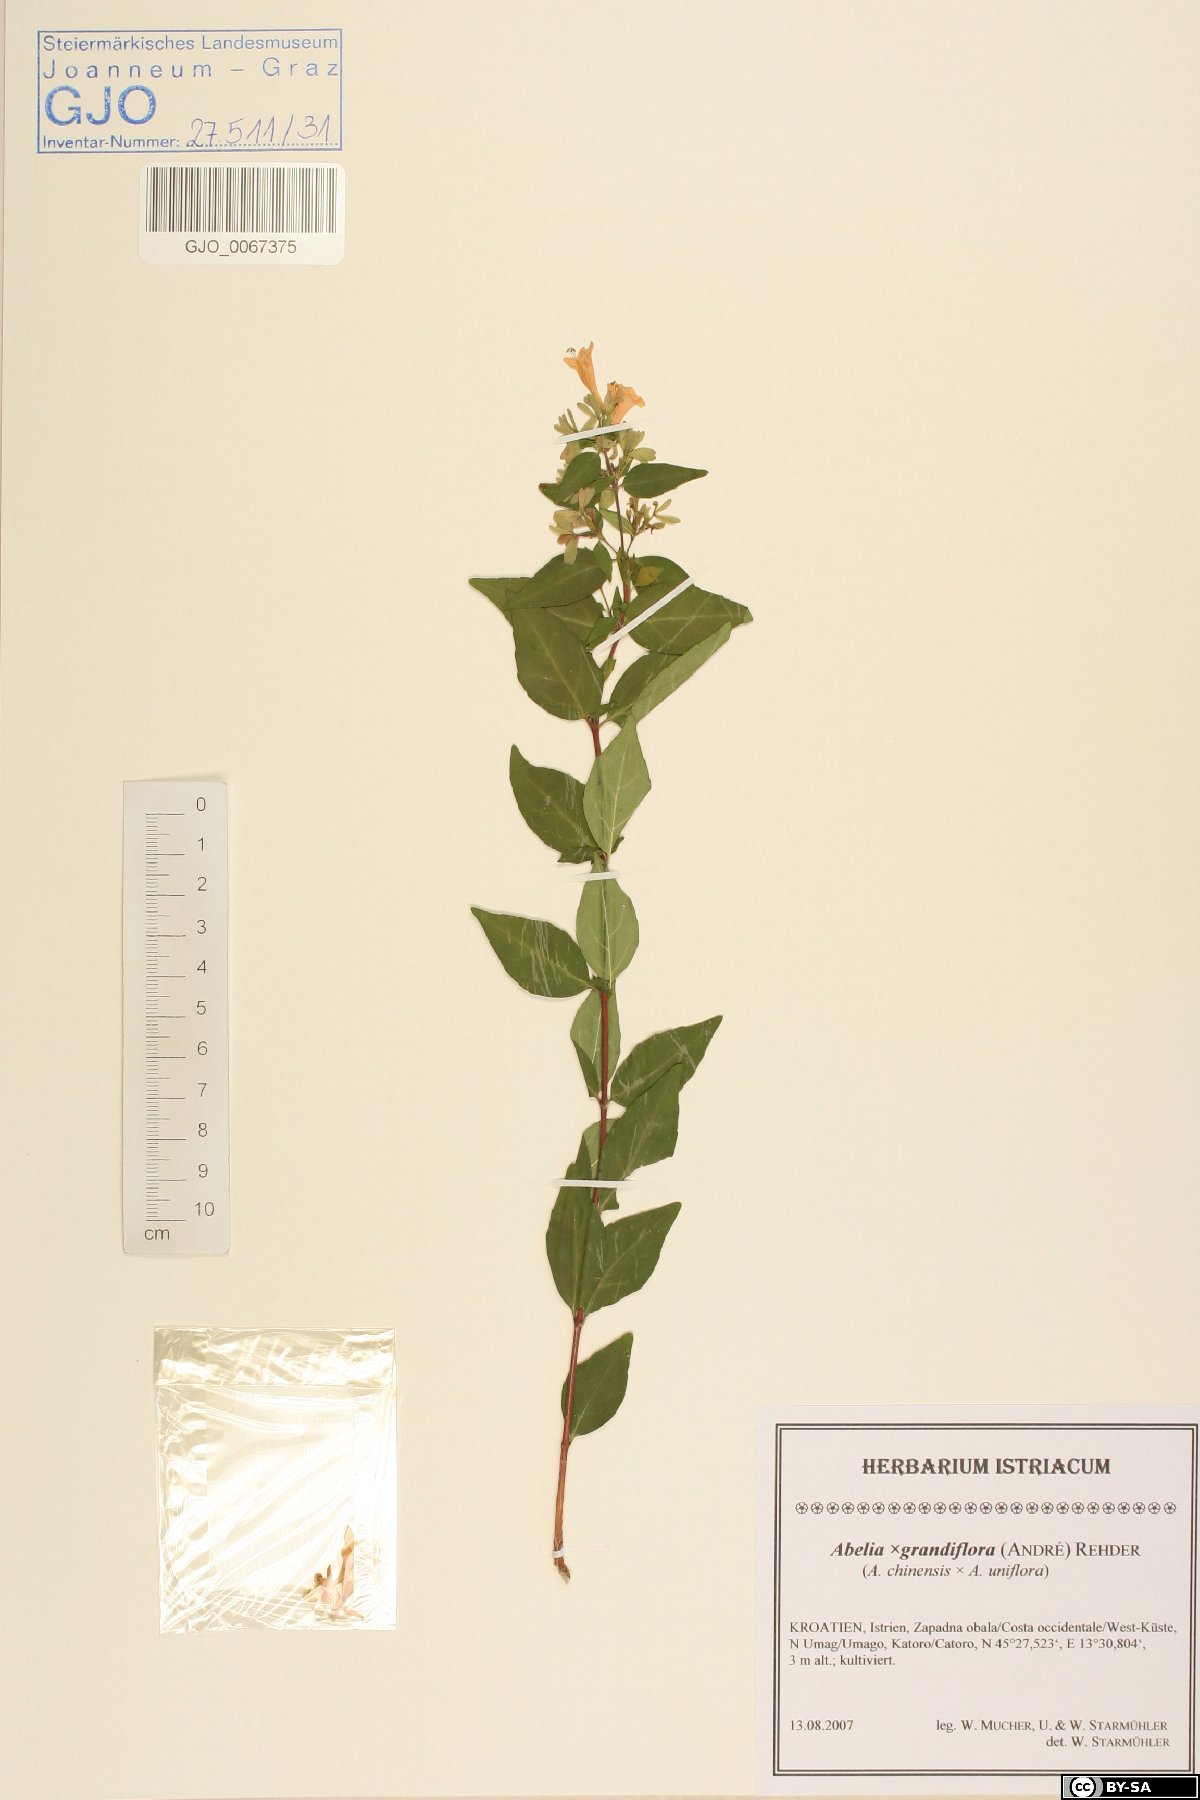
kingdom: Plantae
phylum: Tracheophyta
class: Magnoliopsida
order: Dipsacales
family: Caprifoliaceae
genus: Abelia
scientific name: Abelia chinensis
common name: Chinese abelia
